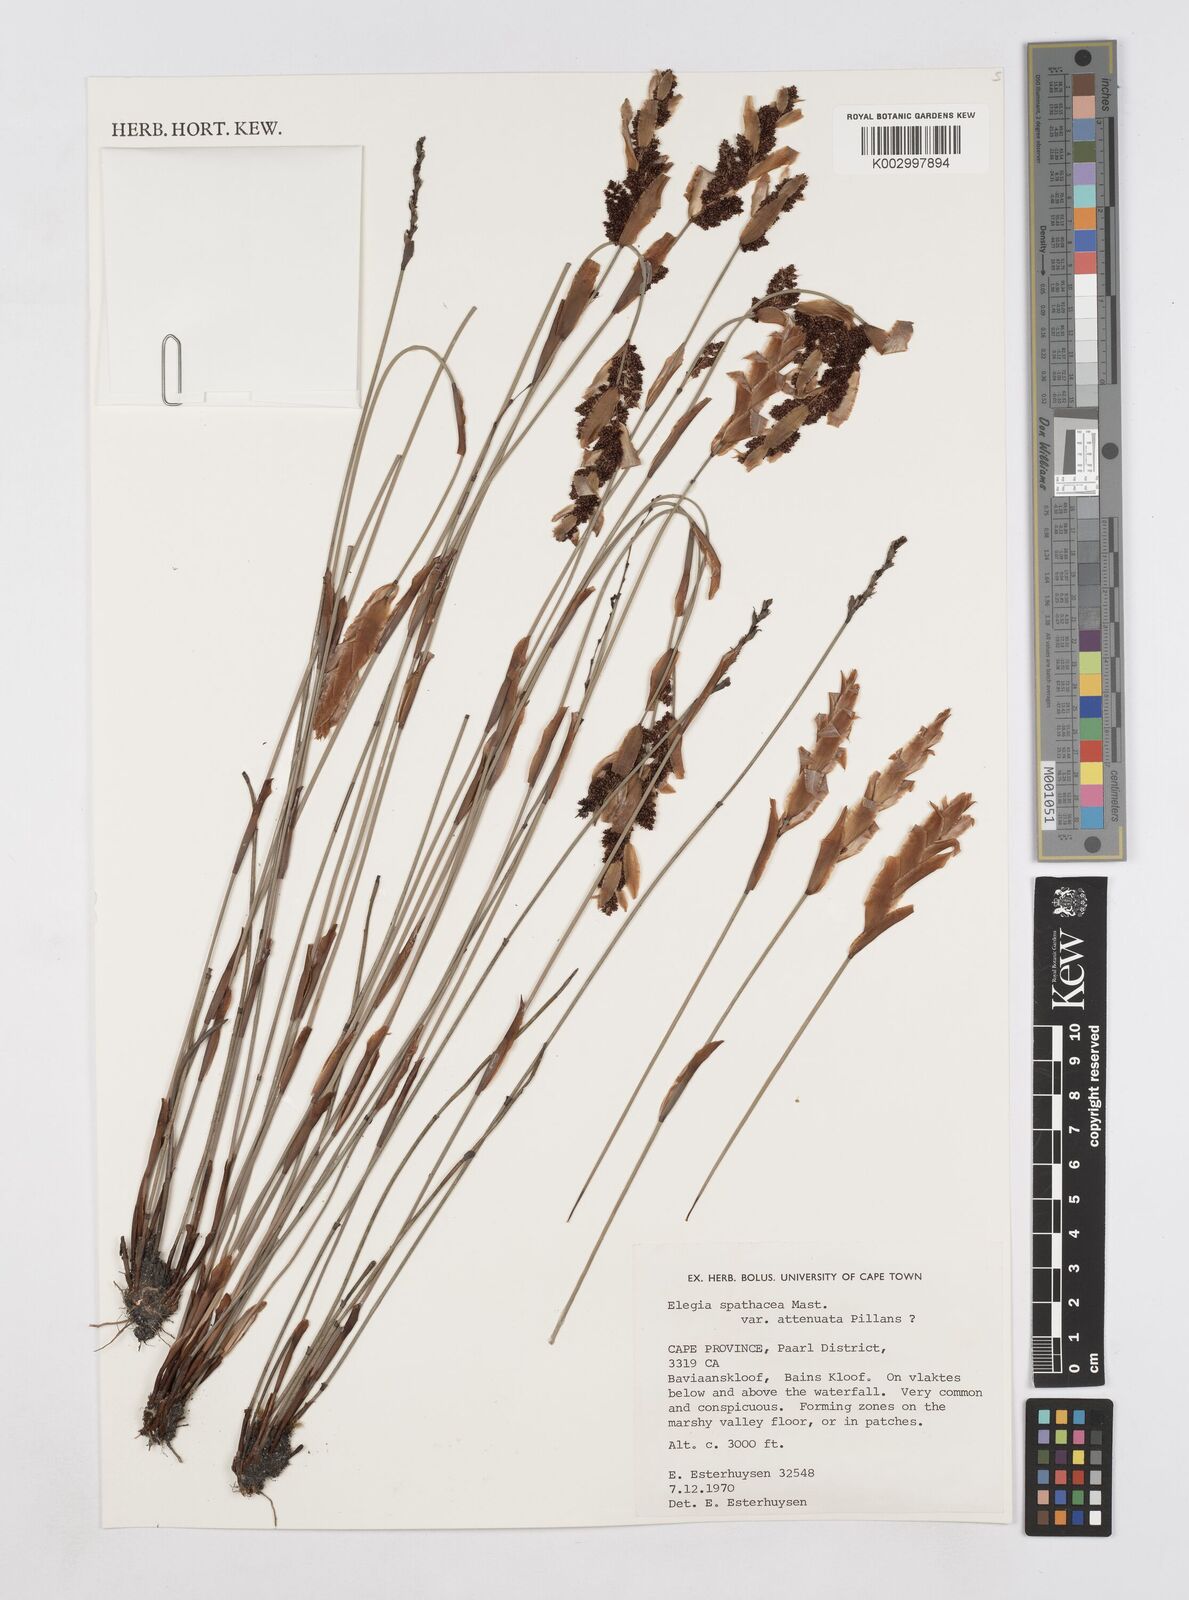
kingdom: Plantae
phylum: Tracheophyta
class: Liliopsida
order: Poales
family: Restionaceae
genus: Elegia
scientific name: Elegia rigida
